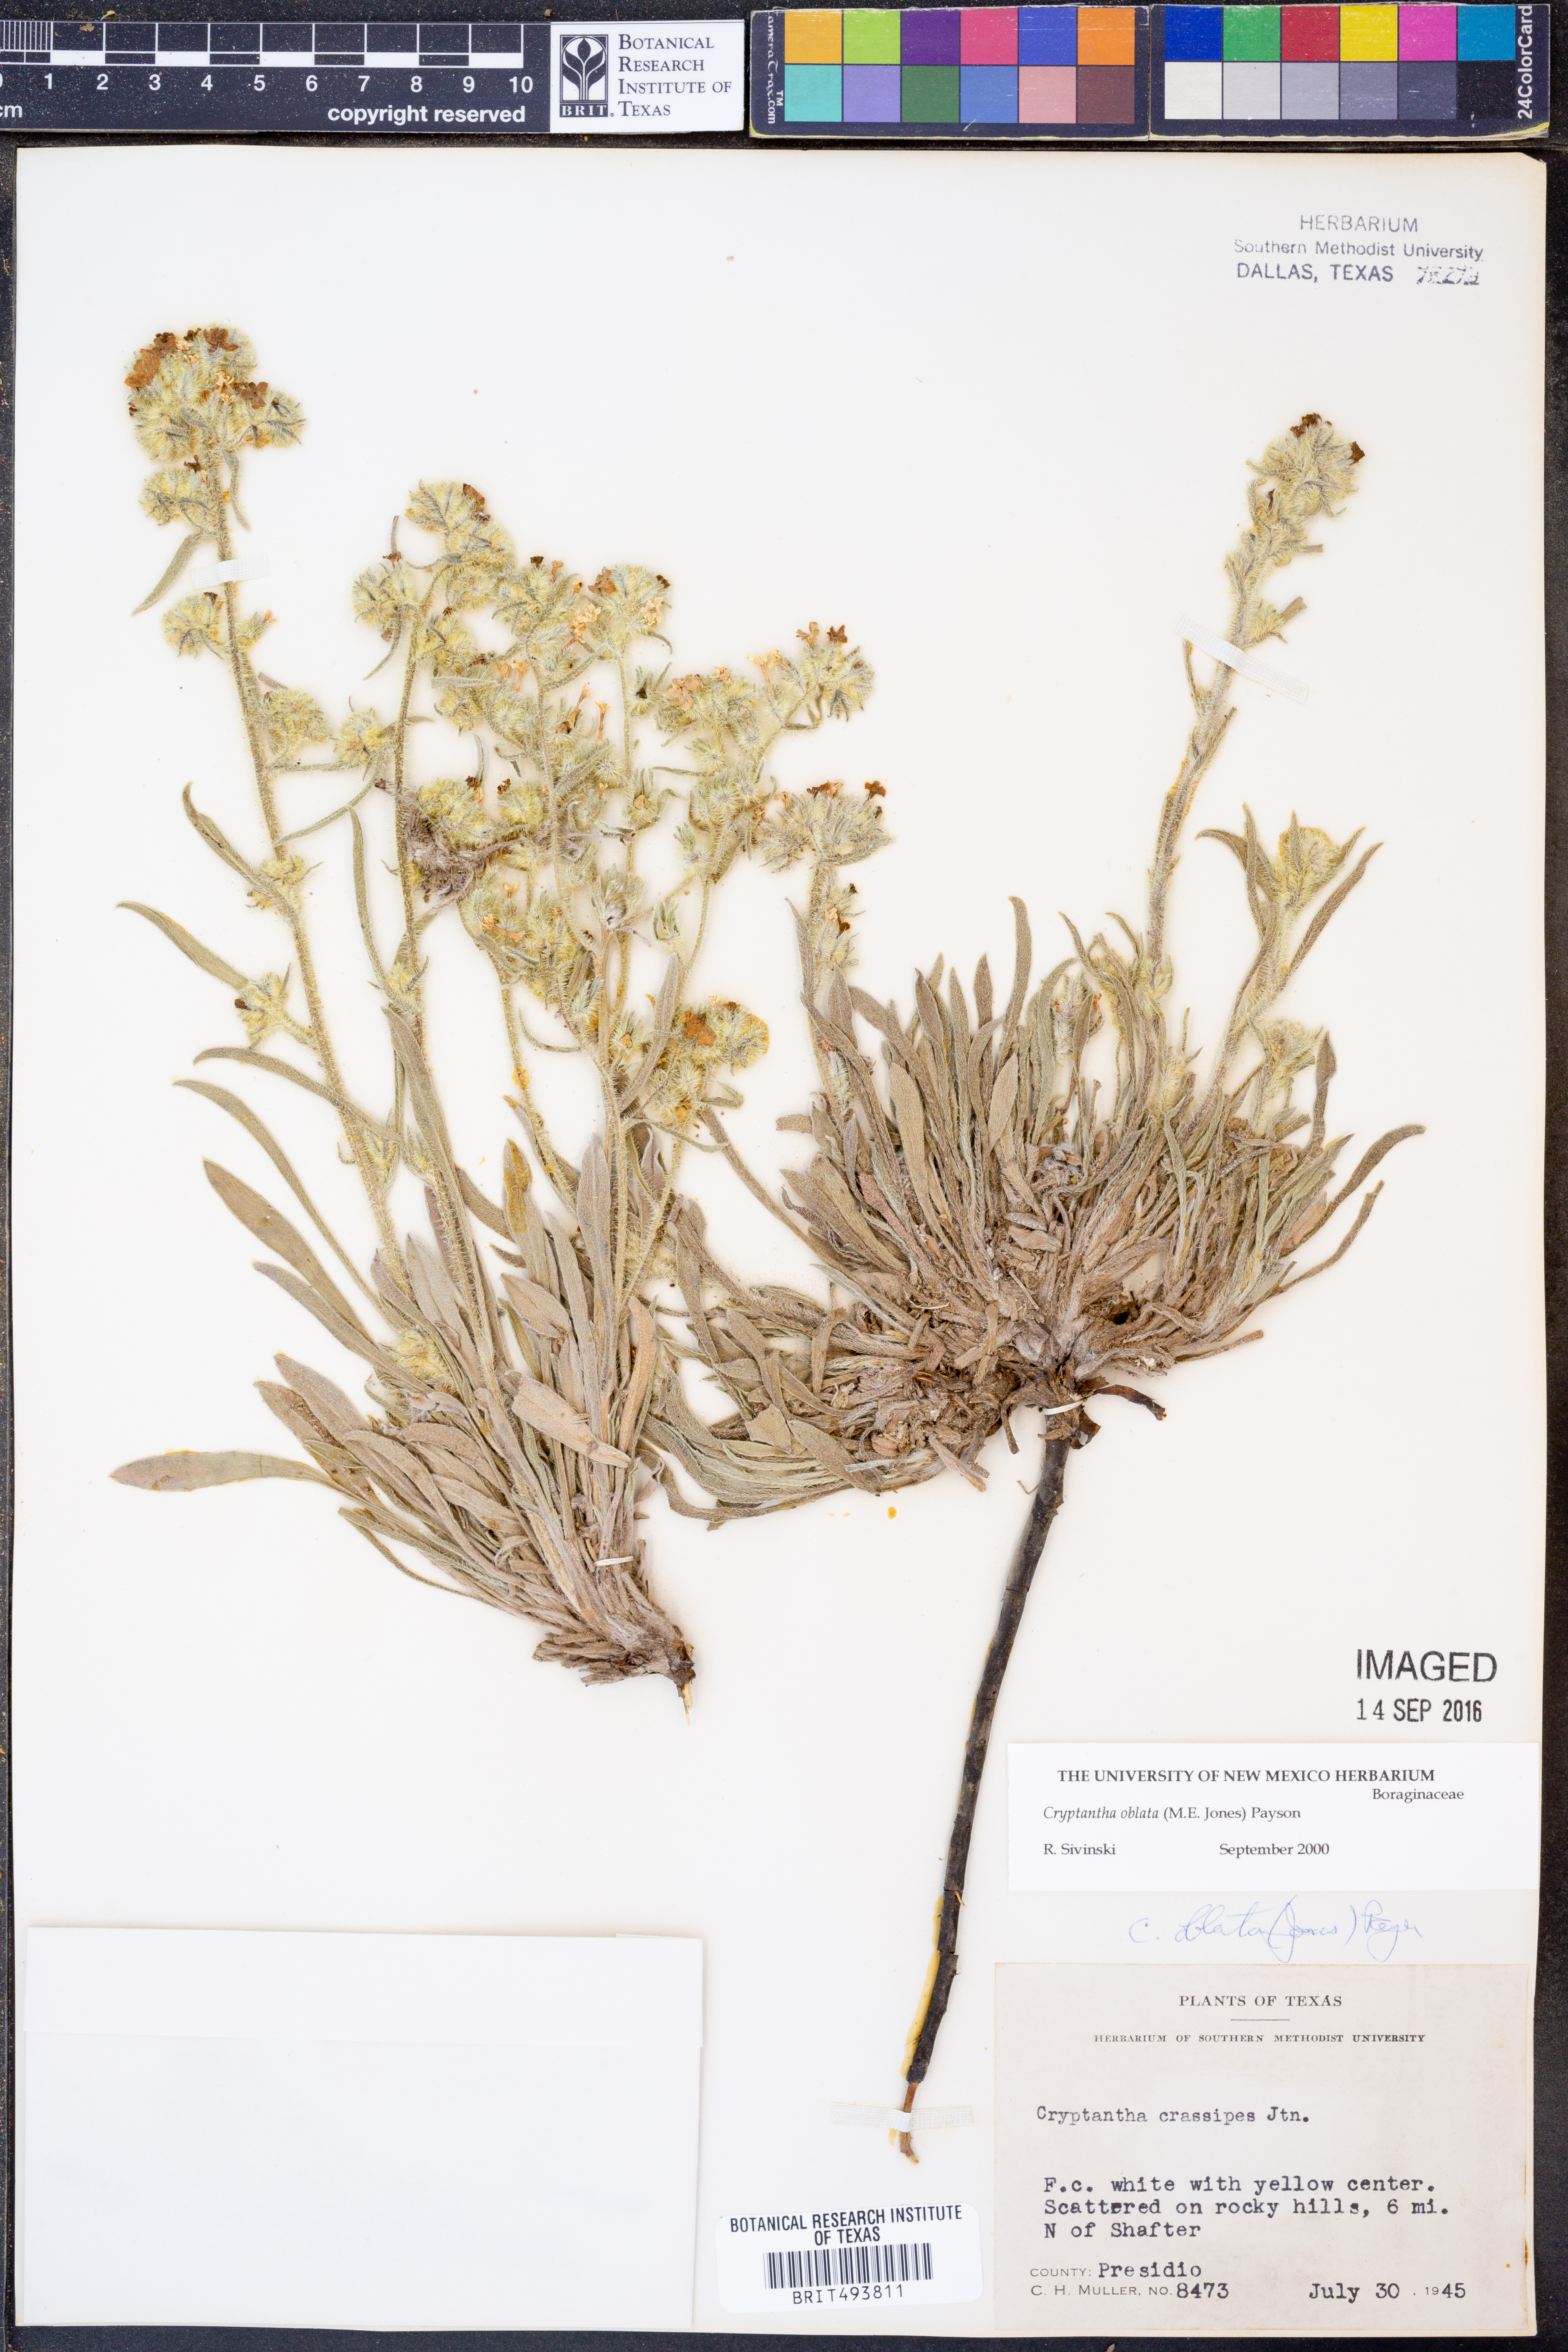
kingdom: Plantae
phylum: Tracheophyta
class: Magnoliopsida
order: Boraginales
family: Boraginaceae
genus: Oreocarya
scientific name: Oreocarya oblata
